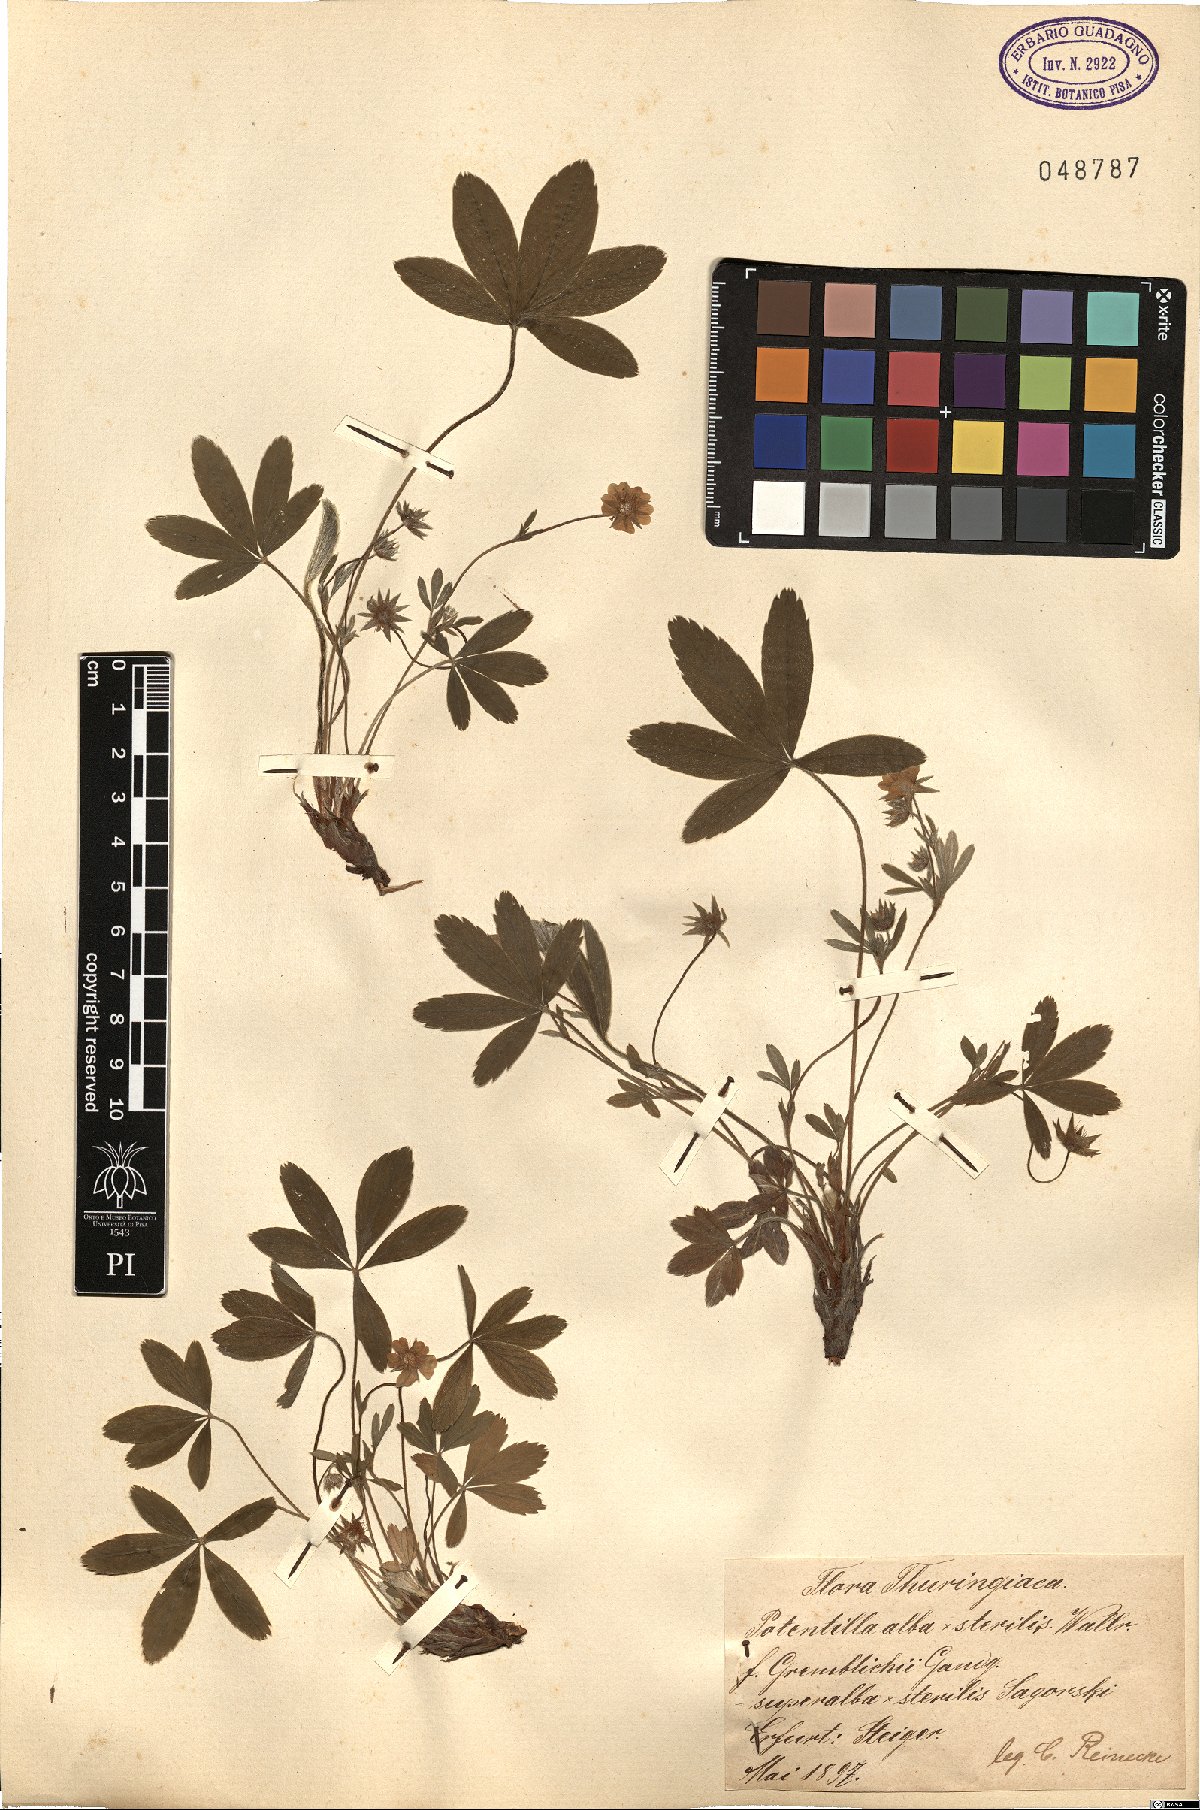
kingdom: Plantae
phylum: Tracheophyta
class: Magnoliopsida
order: Rosales
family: Rosaceae
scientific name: Rosaceae
